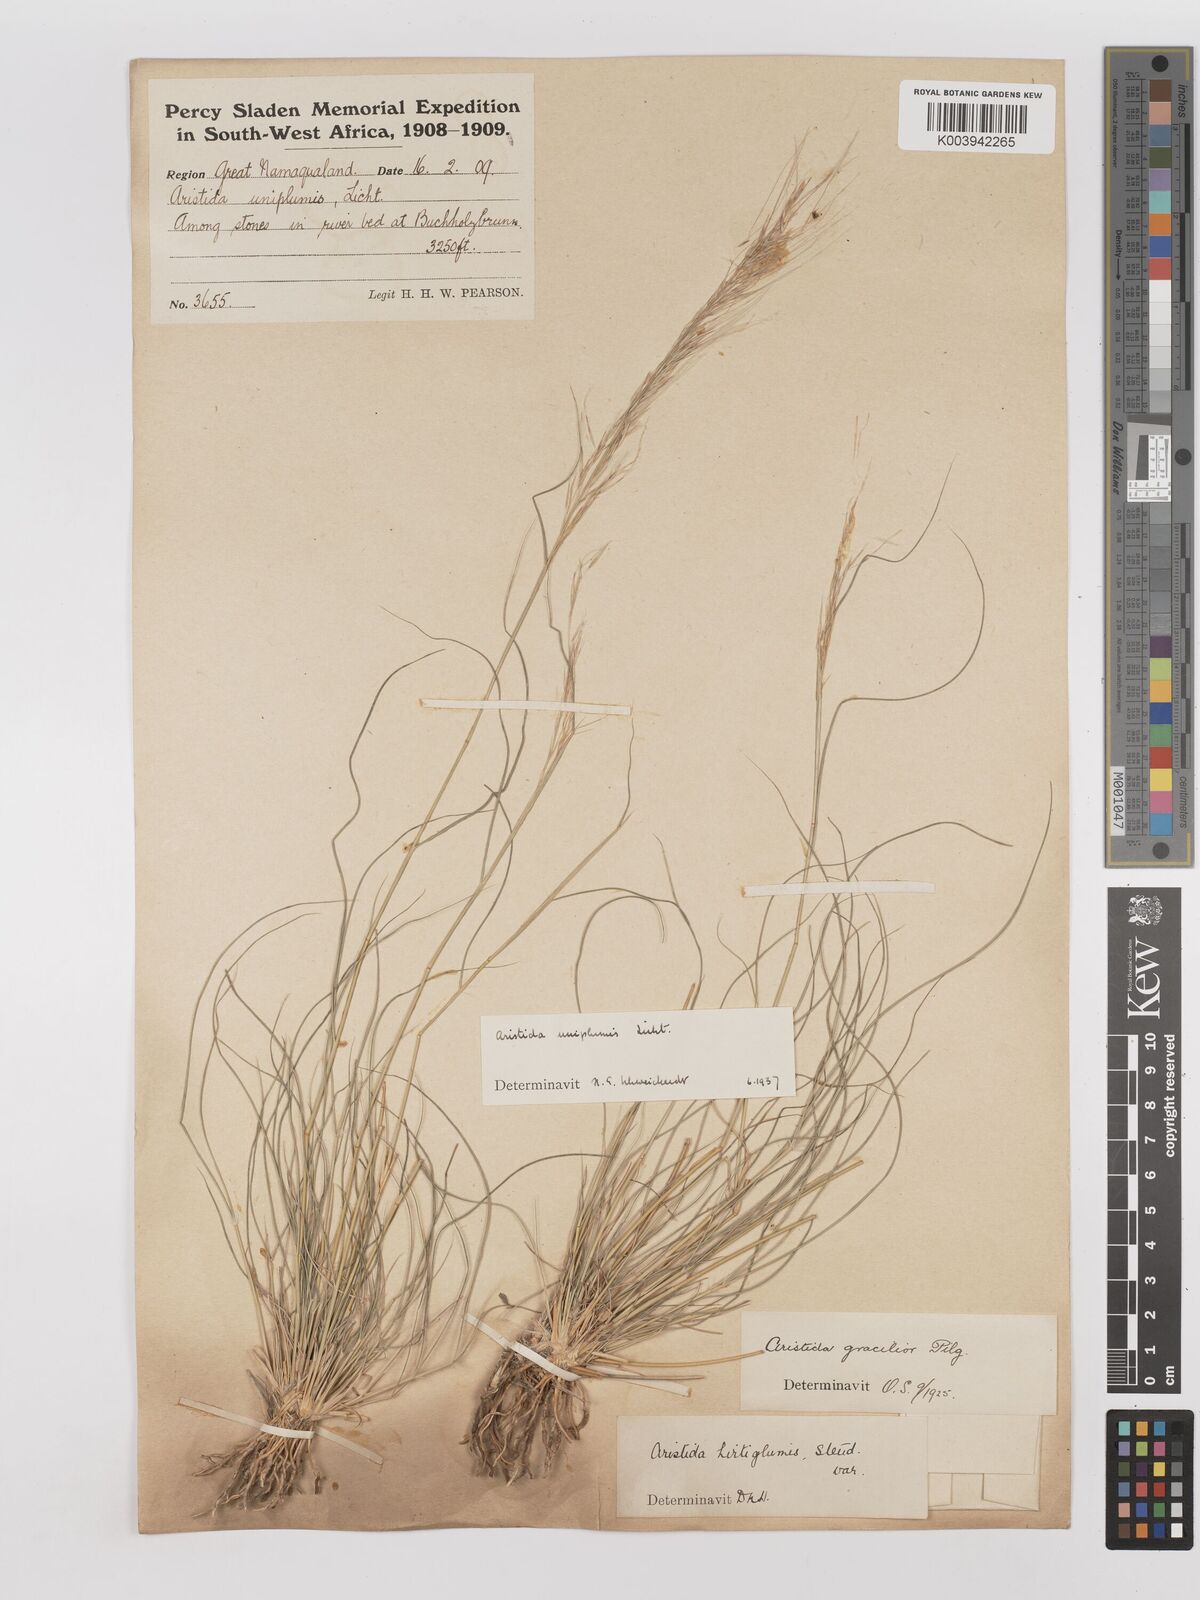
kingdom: Plantae
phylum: Tracheophyta
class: Liliopsida
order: Poales
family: Poaceae
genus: Stipagrostis
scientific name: Stipagrostis uniplumis
